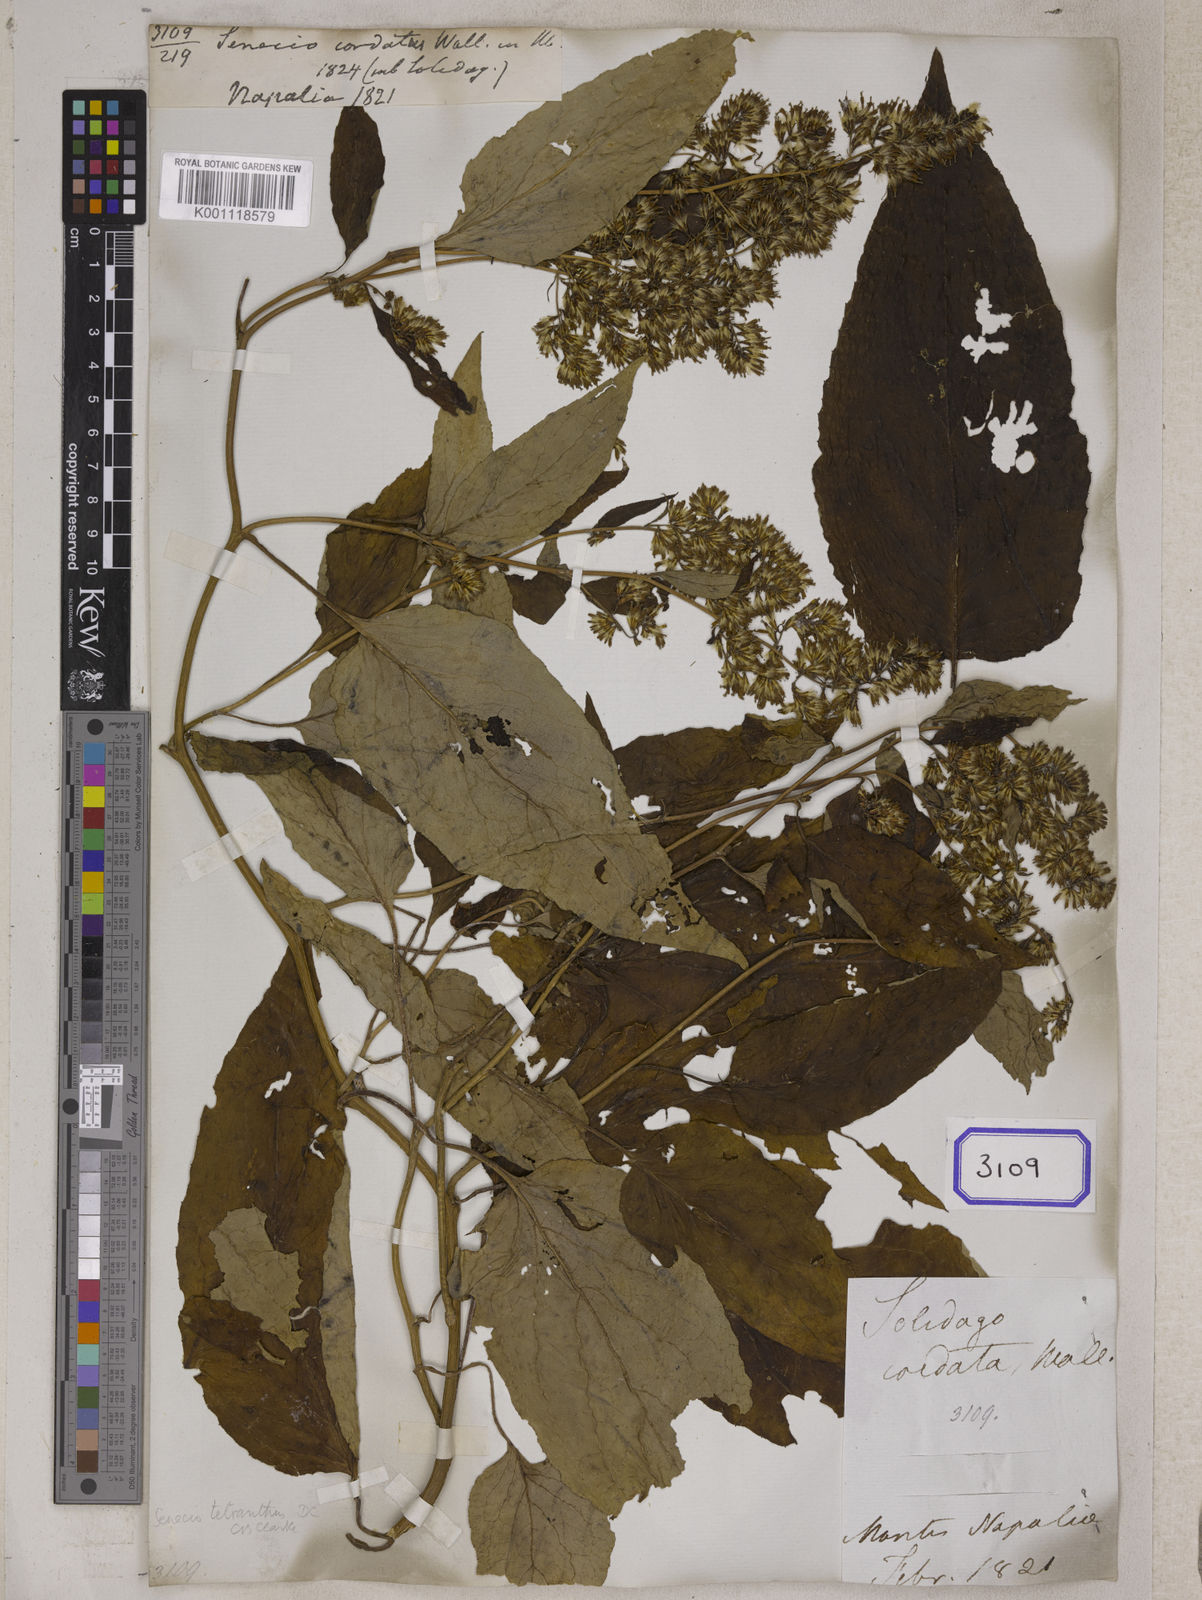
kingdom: Plantae
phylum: Tracheophyta
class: Magnoliopsida
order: Asterales
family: Asteraceae
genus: Synotis
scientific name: Synotis tetrantha
